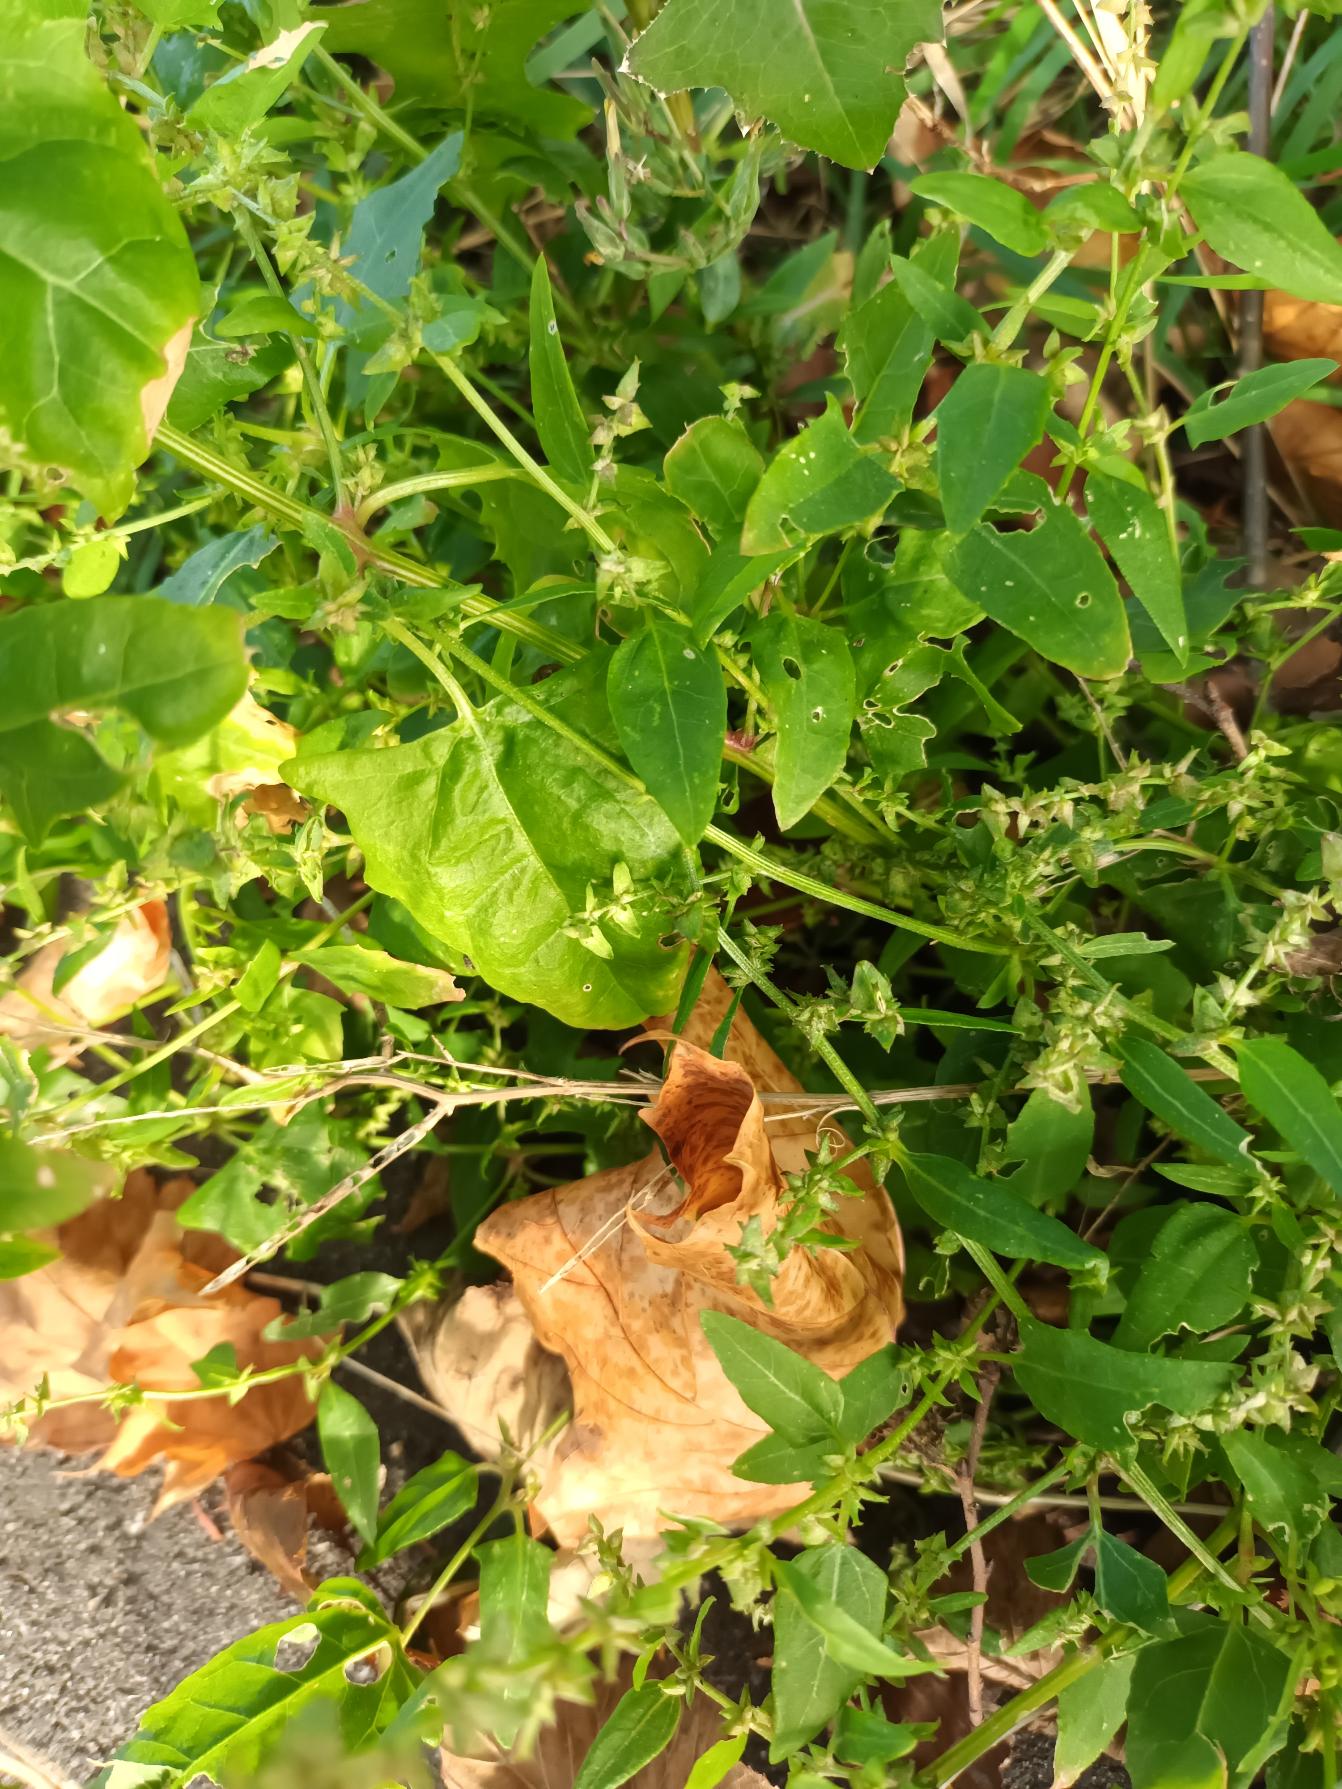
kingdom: Plantae
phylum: Tracheophyta
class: Magnoliopsida
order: Caryophyllales
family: Amaranthaceae
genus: Atriplex
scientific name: Atriplex prostrata
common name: Spyd-mælde
